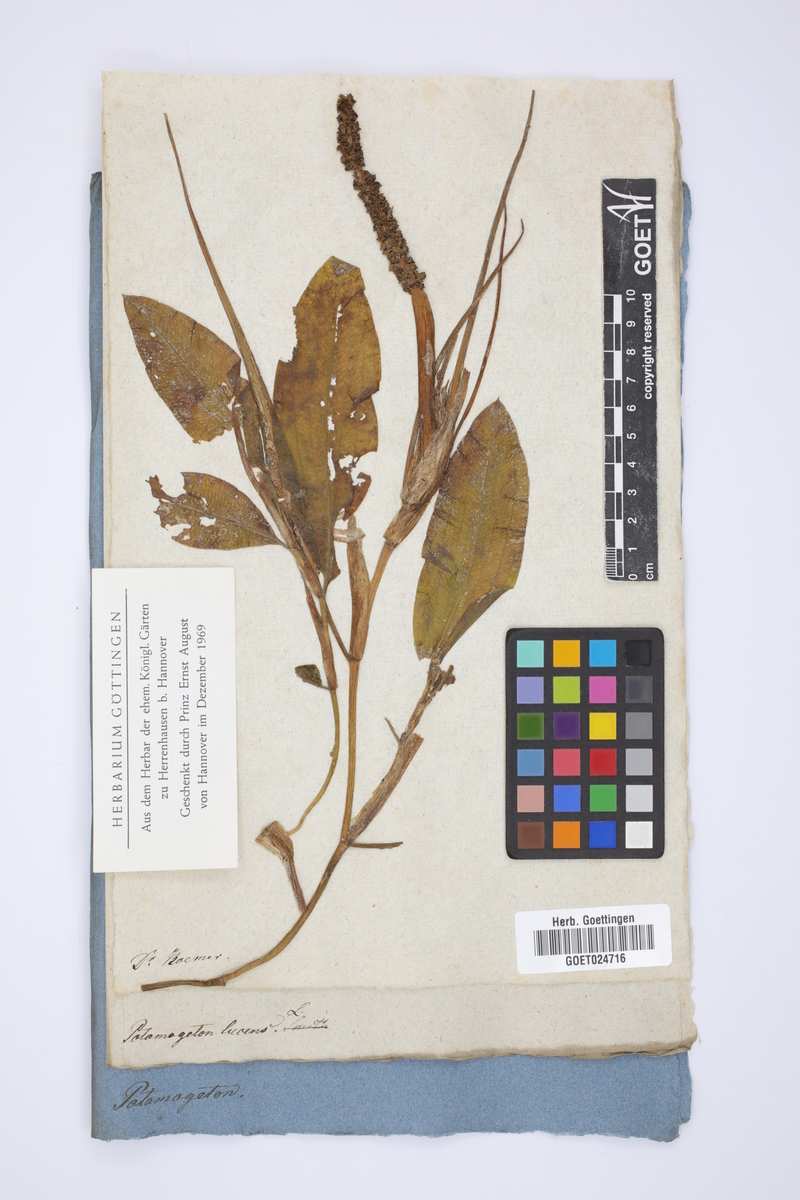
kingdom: Plantae
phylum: Tracheophyta
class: Liliopsida
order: Alismatales
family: Potamogetonaceae
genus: Potamogeton
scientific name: Potamogeton lucens
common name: Shining pondweed
